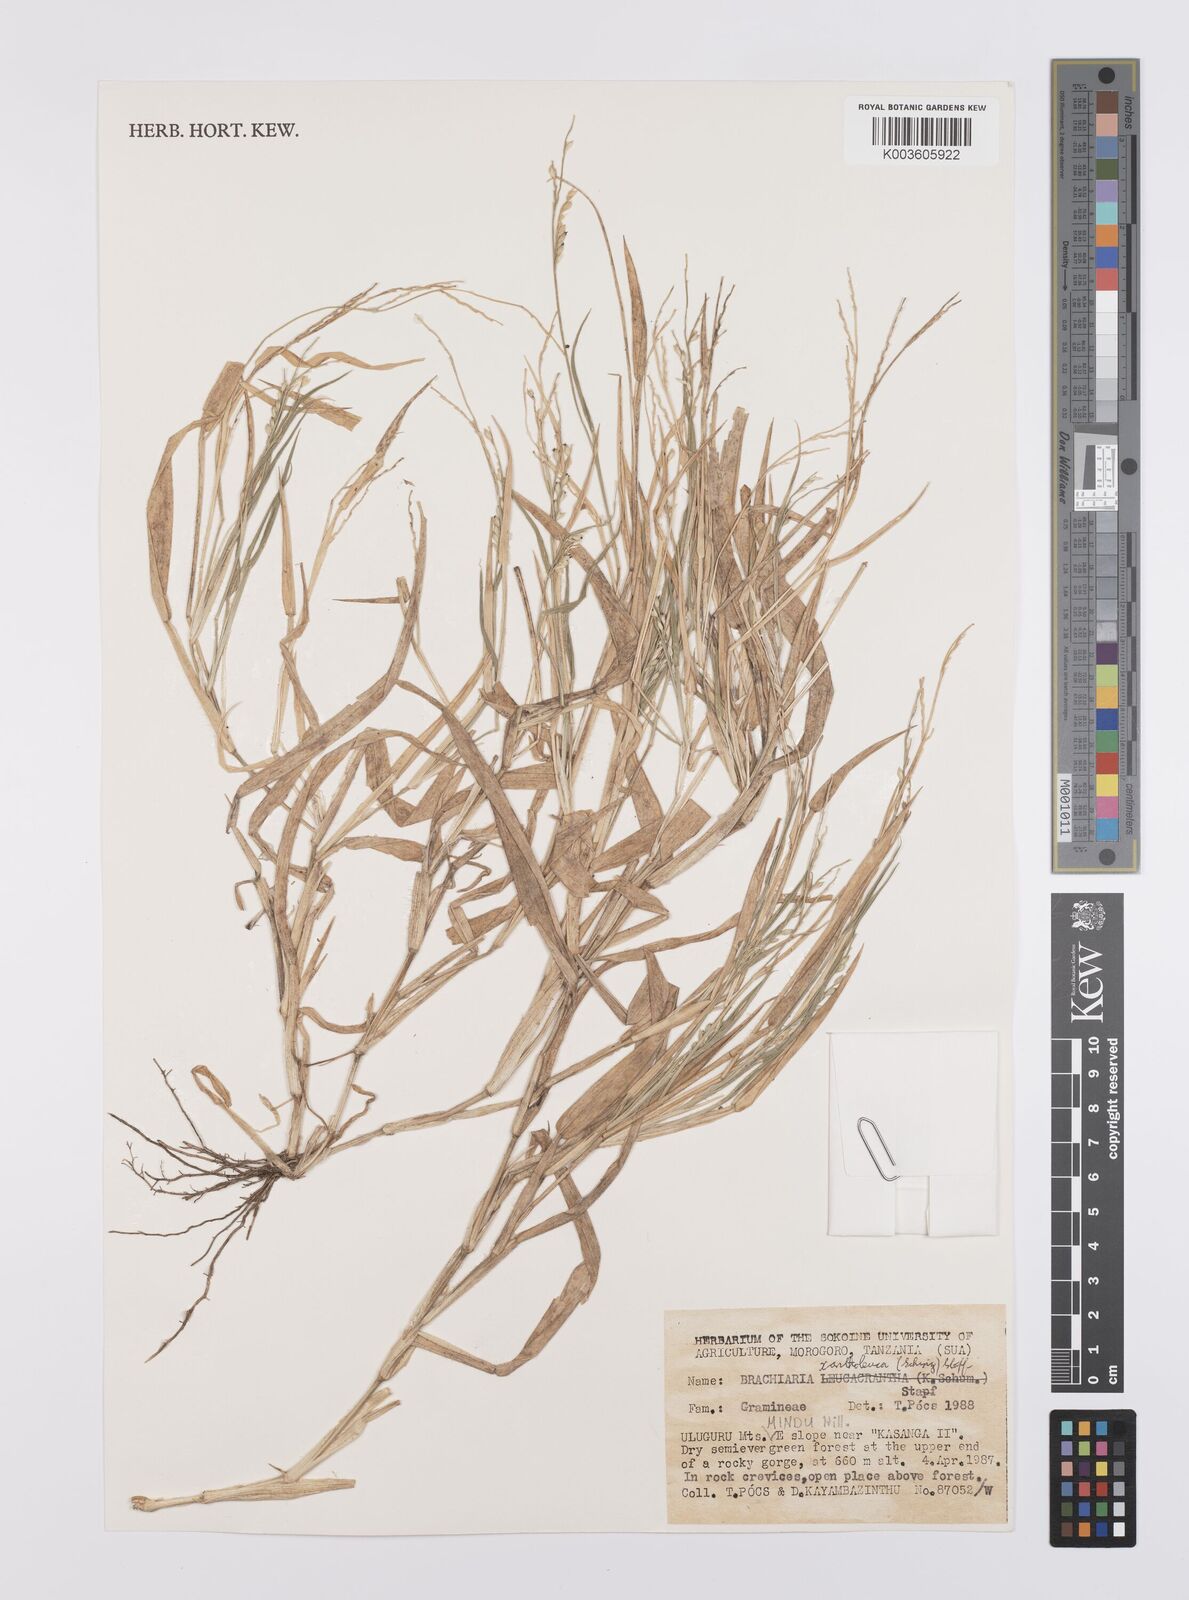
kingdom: Plantae
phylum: Tracheophyta
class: Liliopsida
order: Poales
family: Poaceae
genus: Urochloa
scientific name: Urochloa xantholeuca
